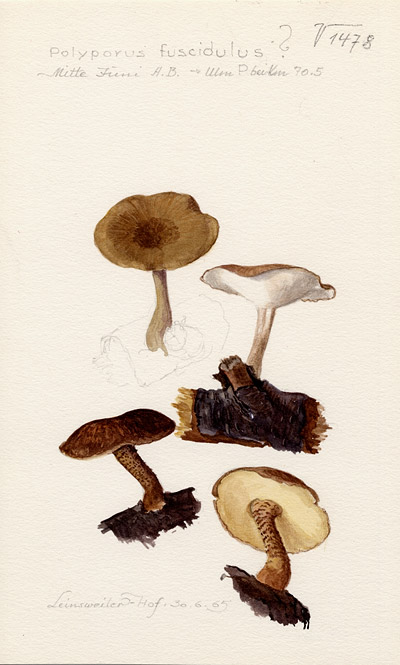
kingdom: Fungi
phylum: Basidiomycota
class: Agaricomycetes
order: Polyporales
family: Polyporaceae
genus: Lentinus
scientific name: Lentinus substrictus
